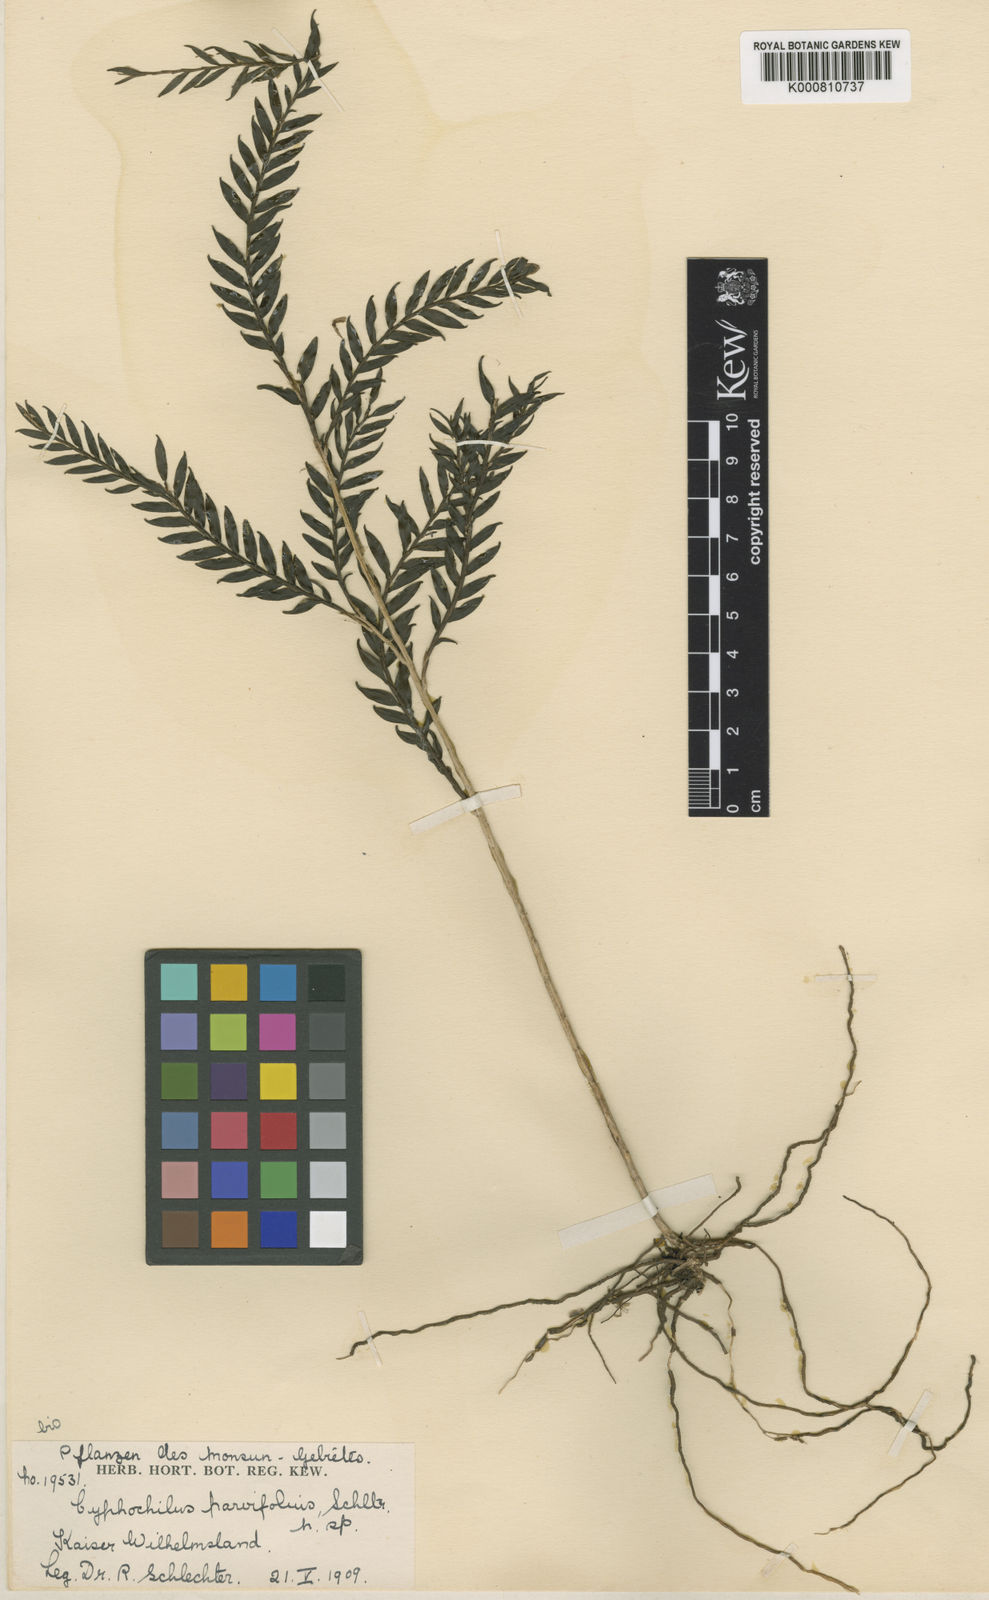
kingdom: Plantae
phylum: Tracheophyta
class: Liliopsida
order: Asparagales
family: Orchidaceae
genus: Appendicula
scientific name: Appendicula parvifolia
